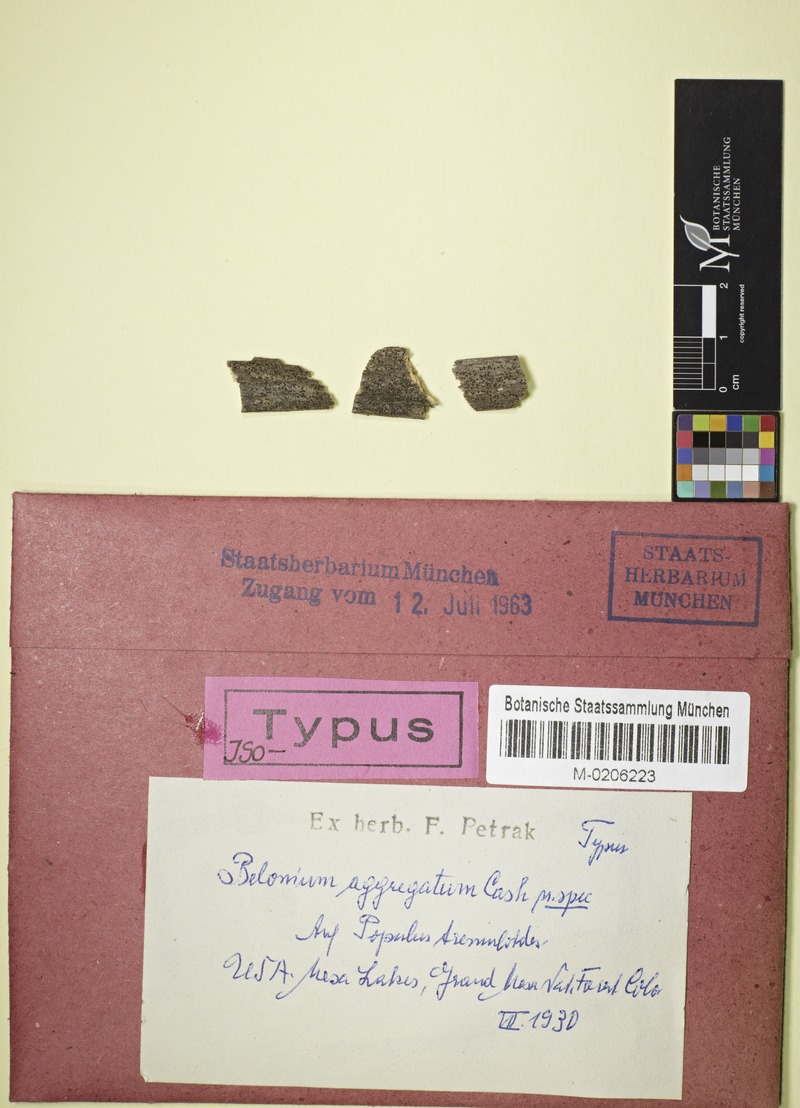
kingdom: Fungi
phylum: Ascomycota
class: Leotiomycetes
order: Helotiales
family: Ploettnerulaceae
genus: Belonium
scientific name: Belonium aggregatum
